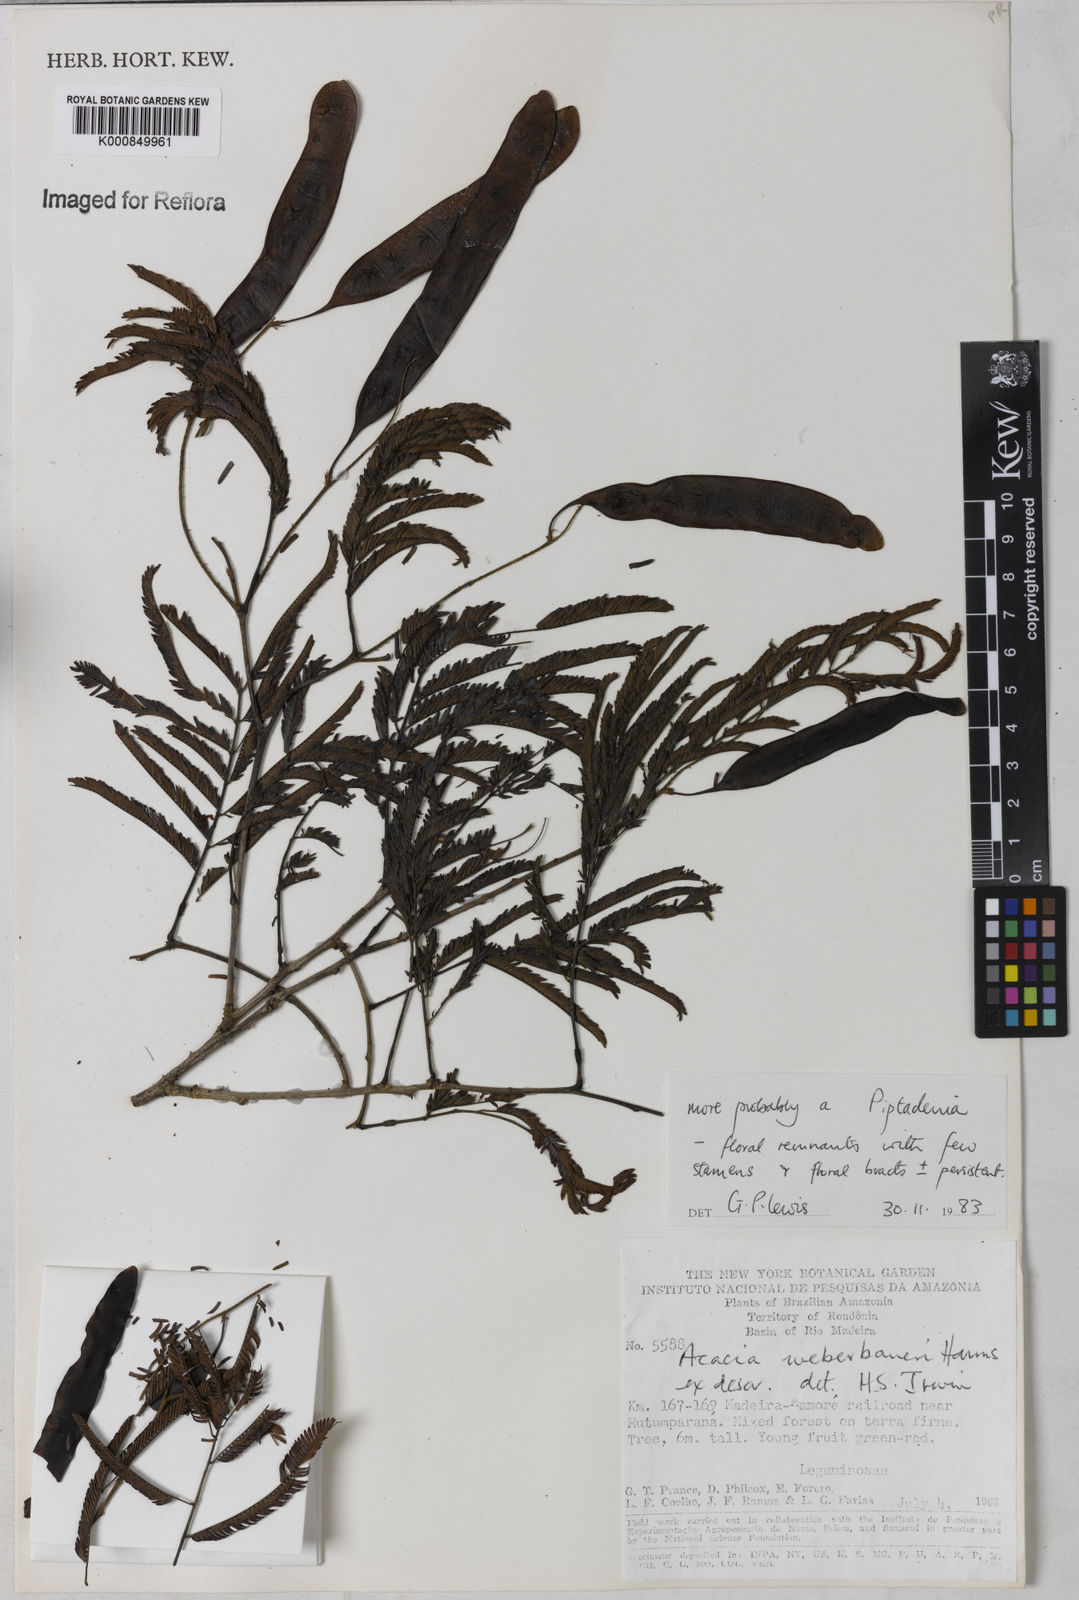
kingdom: Plantae
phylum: Tracheophyta
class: Magnoliopsida
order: Fabales
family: Fabaceae
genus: Piptadenia
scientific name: Piptadenia
